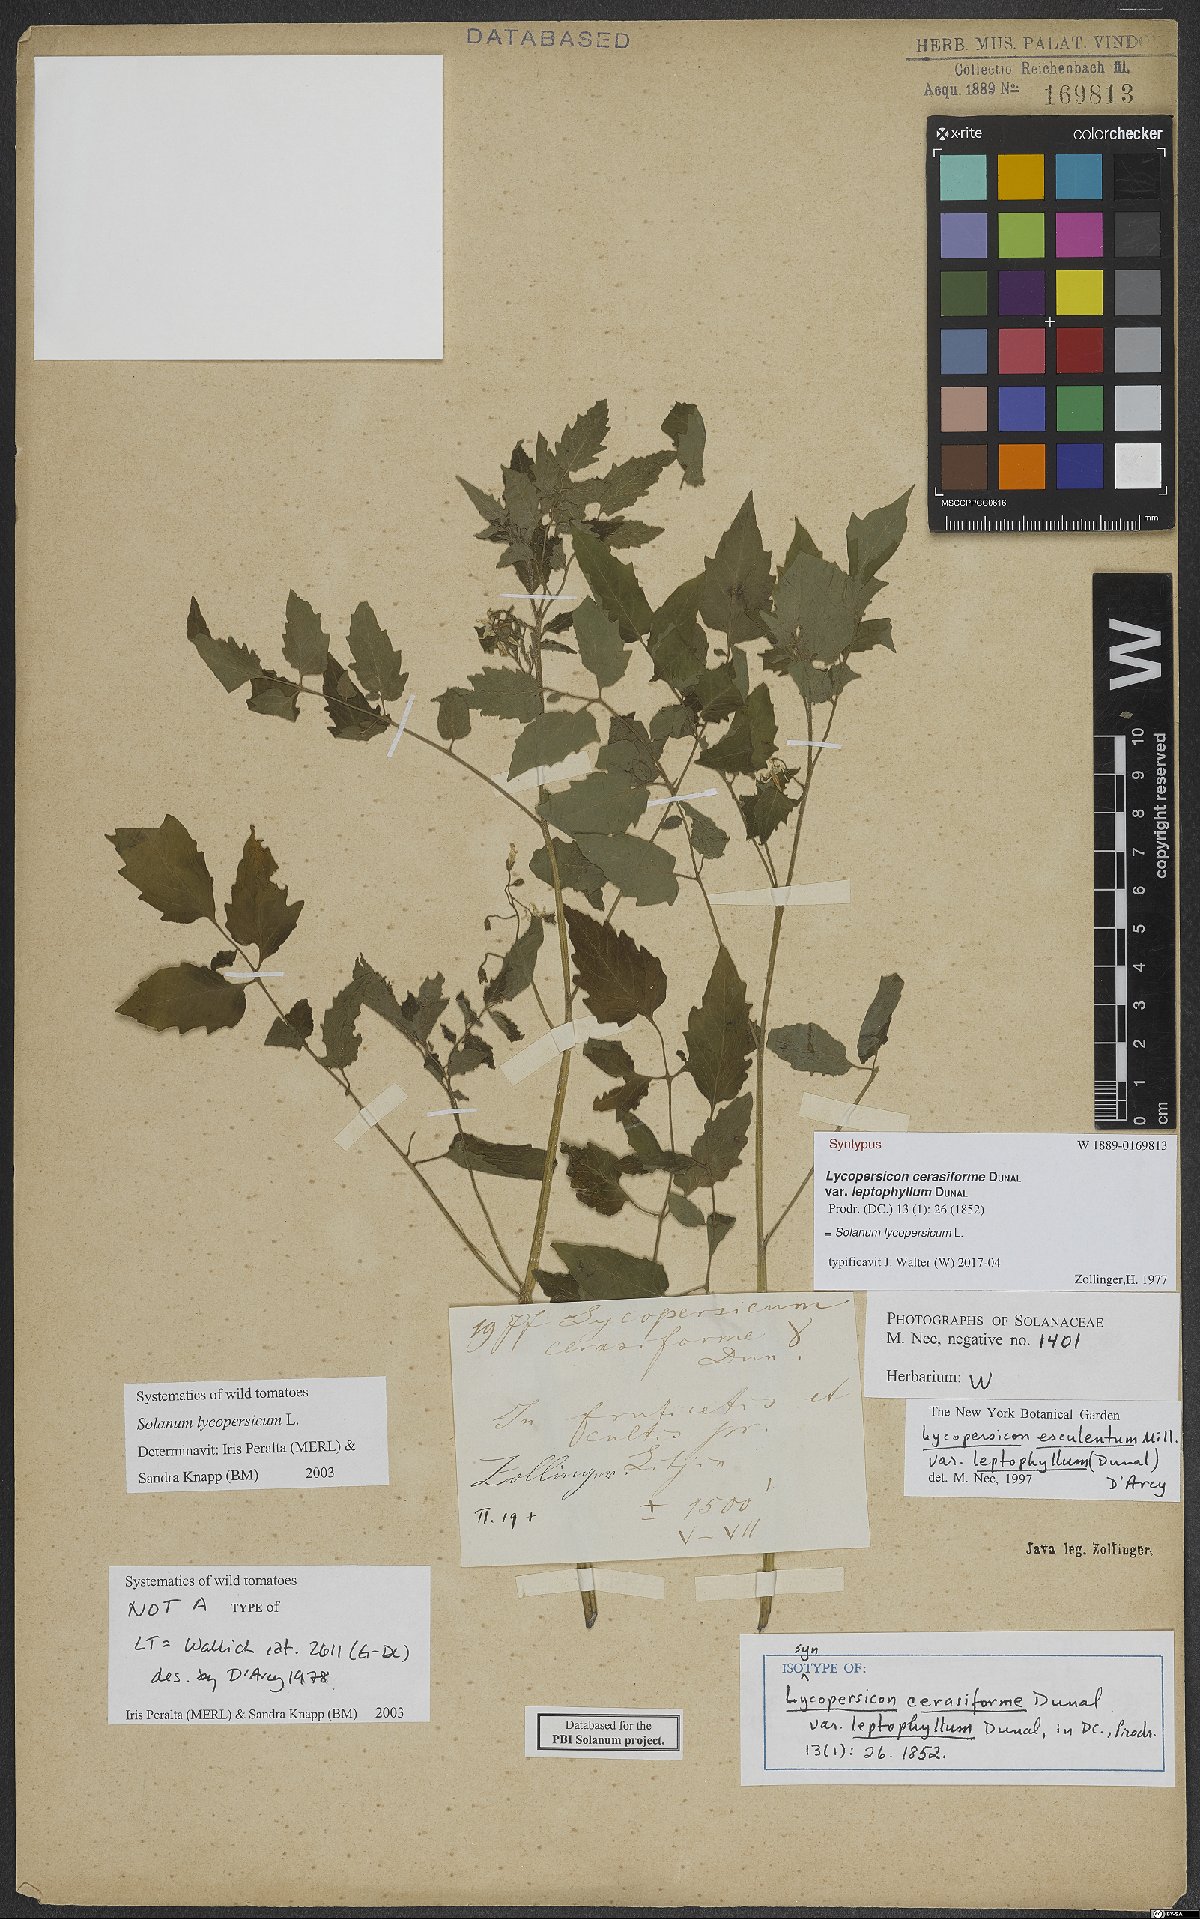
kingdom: Plantae
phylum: Tracheophyta
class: Magnoliopsida
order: Solanales
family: Solanaceae
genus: Solanum
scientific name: Solanum lycopersicum
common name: Garden tomato
